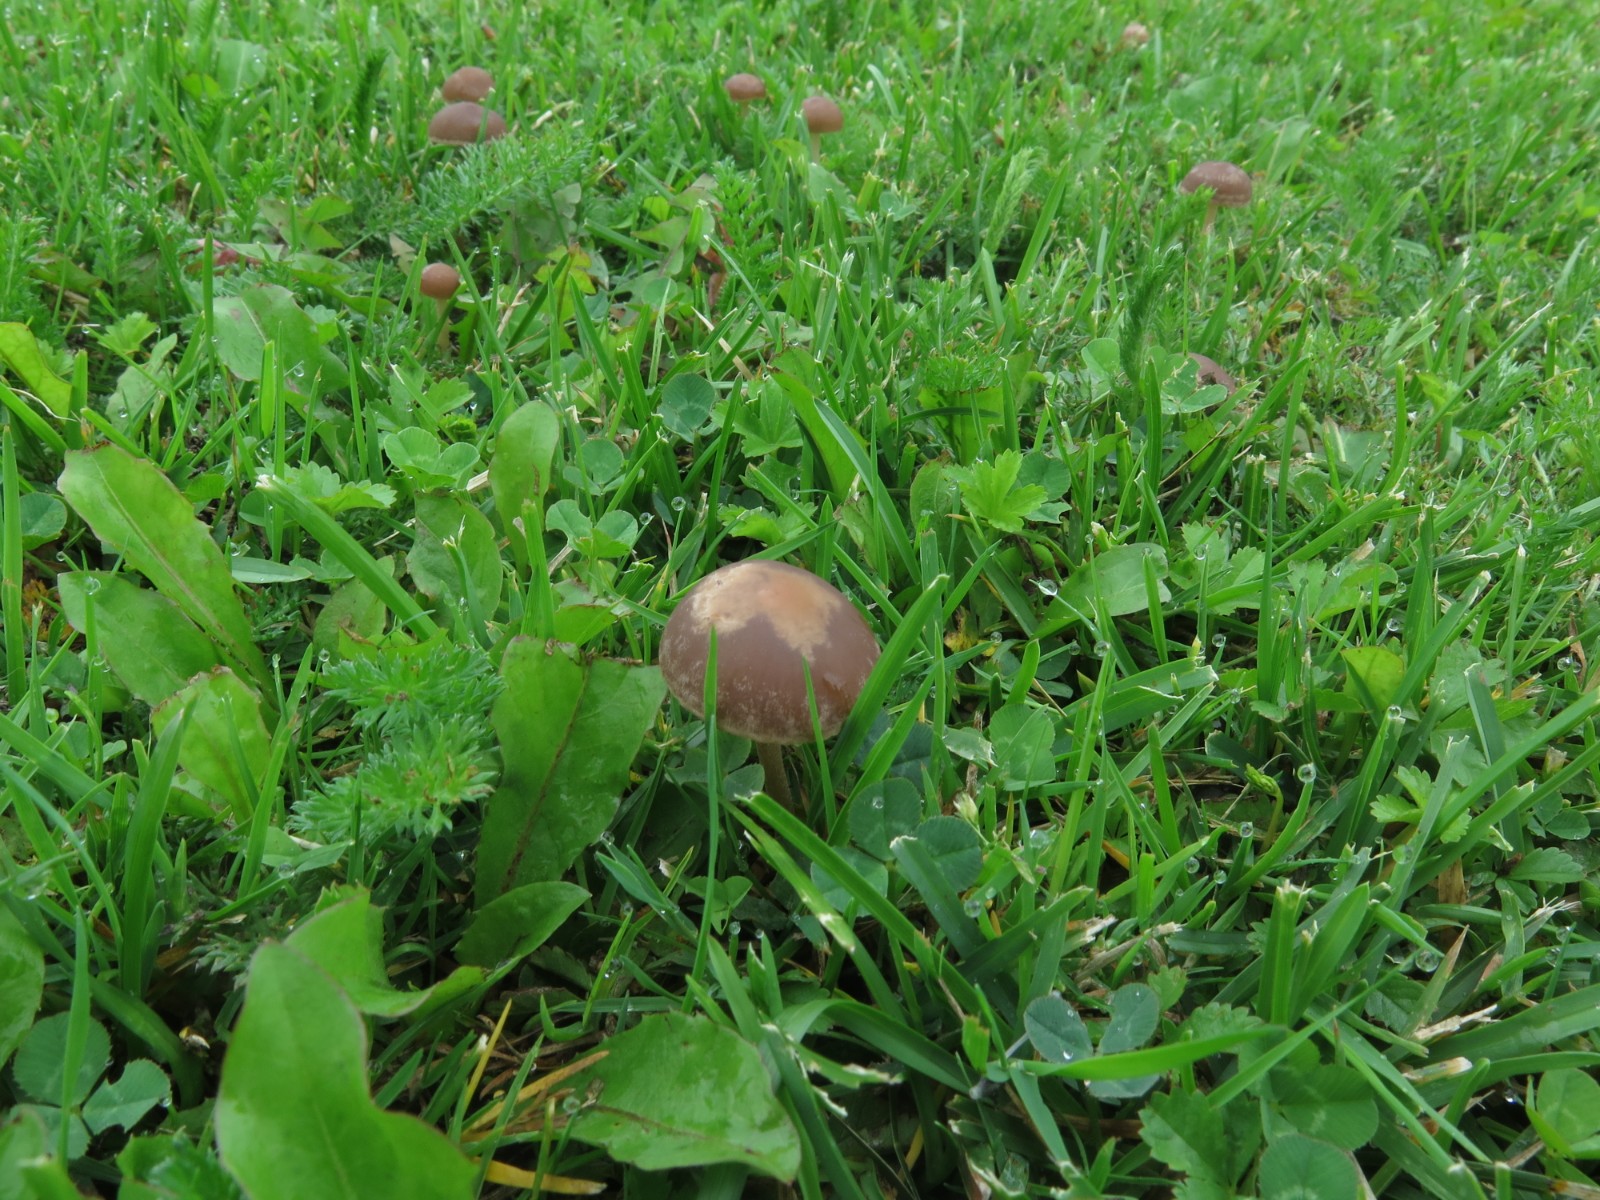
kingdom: Fungi
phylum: Basidiomycota
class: Agaricomycetes
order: Agaricales
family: Bolbitiaceae
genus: Panaeolina
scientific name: Panaeolina foenisecii
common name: høslætsvamp
